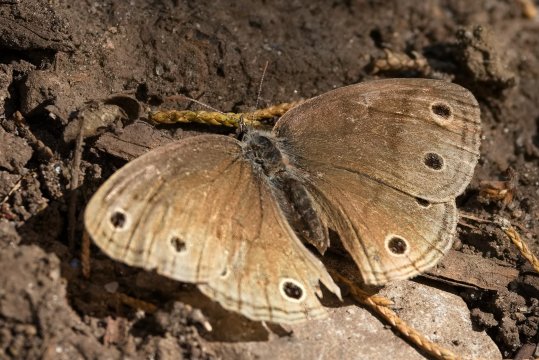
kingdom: Animalia
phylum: Arthropoda
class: Insecta
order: Lepidoptera
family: Nymphalidae
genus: Euptychia
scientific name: Euptychia cymela
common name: Little Wood Satyr
